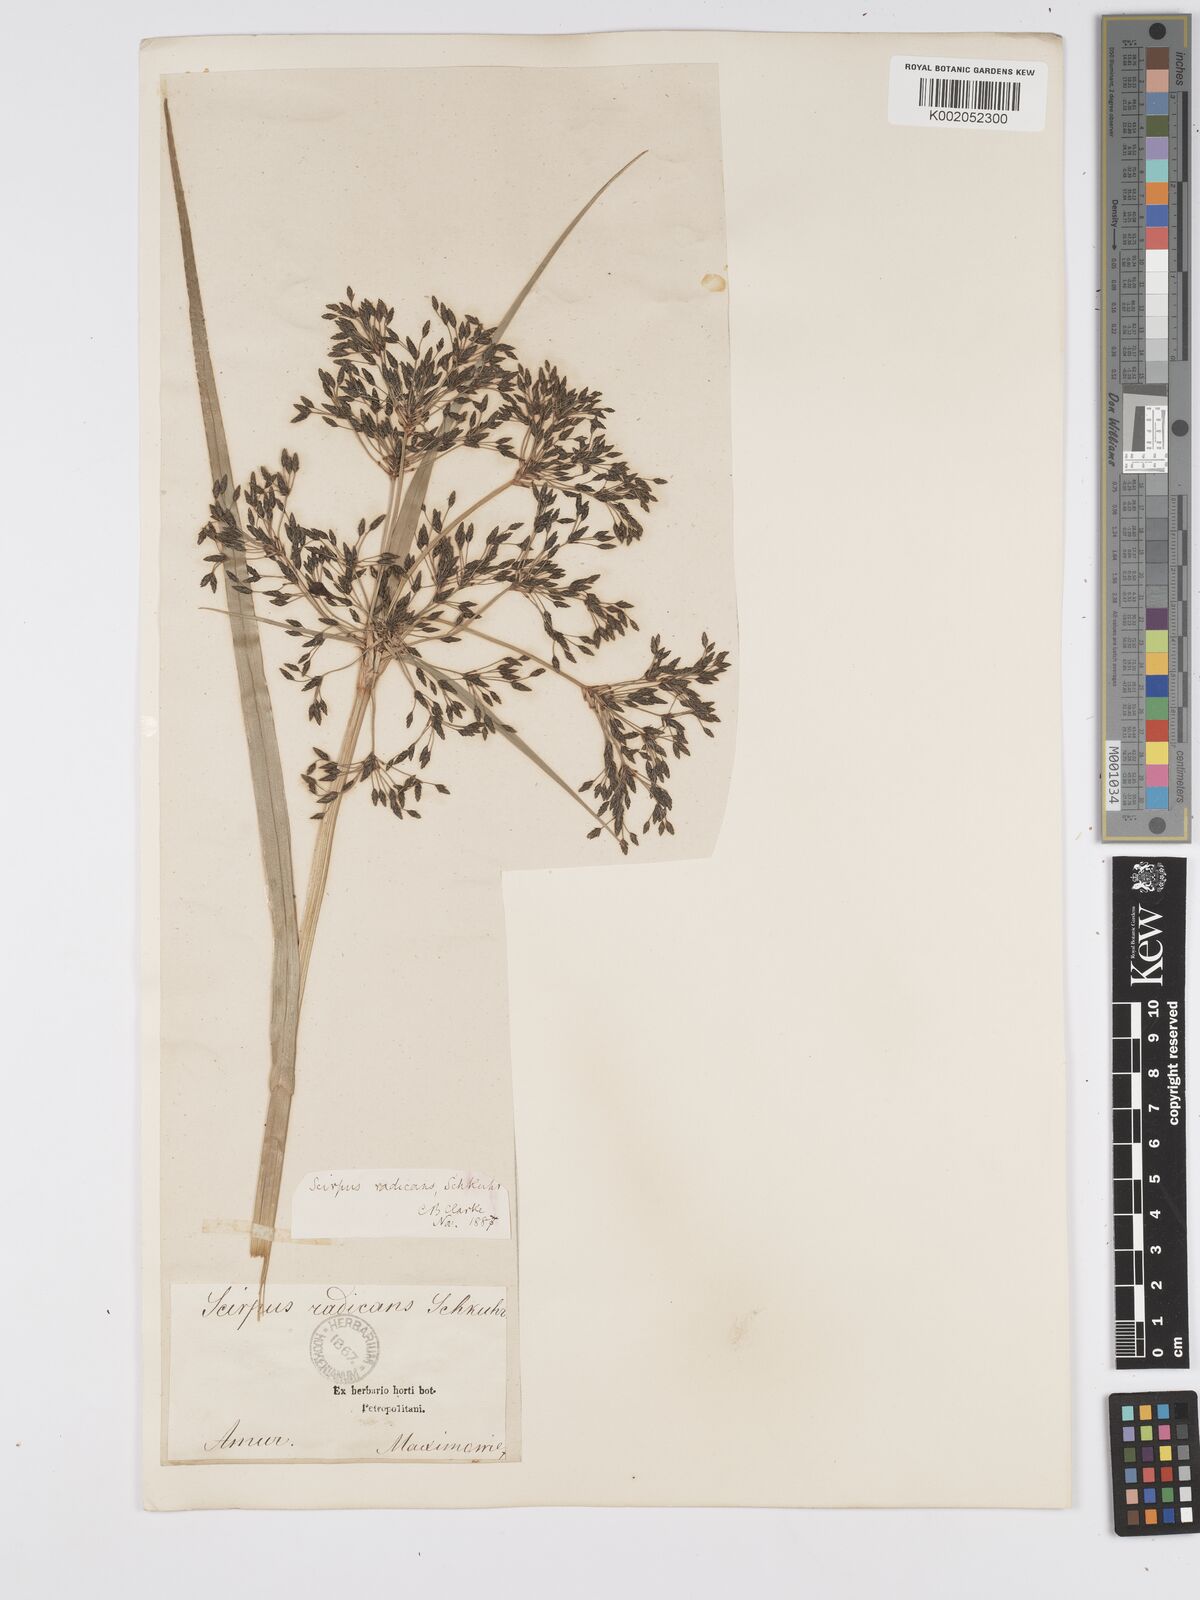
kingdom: Plantae
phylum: Tracheophyta
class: Liliopsida
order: Poales
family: Cyperaceae
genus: Scirpus
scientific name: Scirpus radicans
